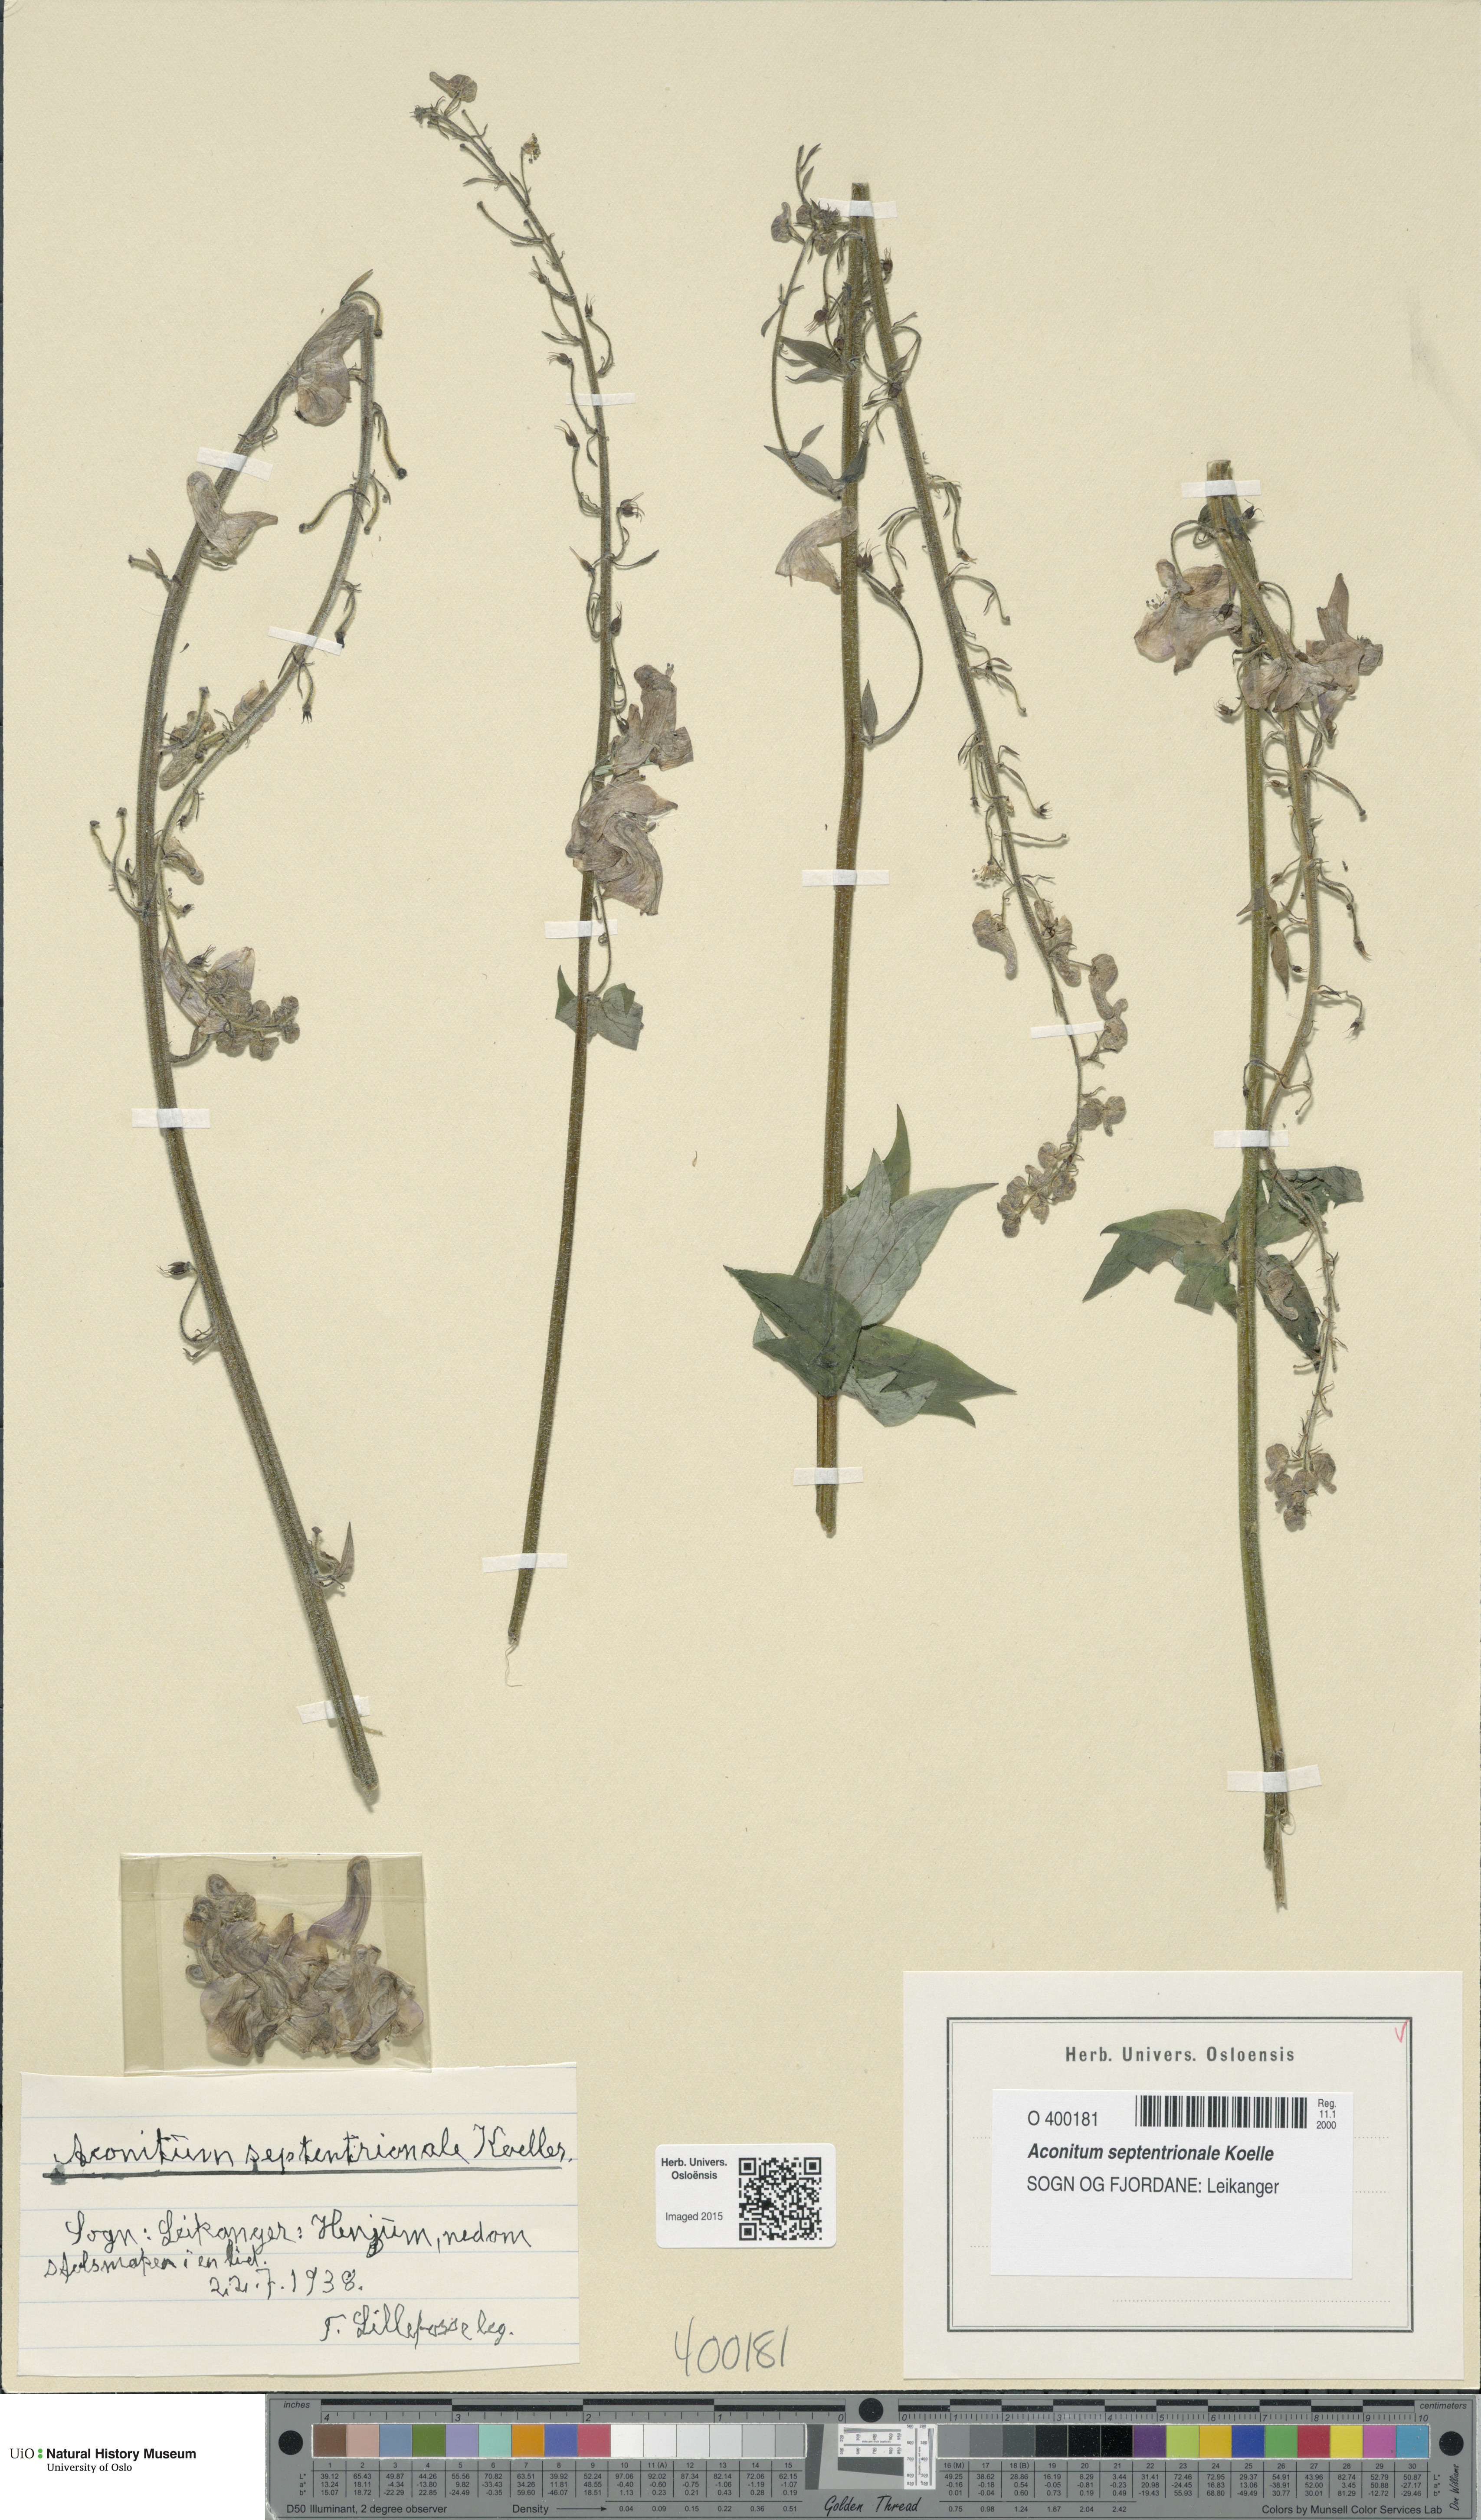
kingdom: Plantae
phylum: Tracheophyta
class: Magnoliopsida
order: Ranunculales
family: Ranunculaceae
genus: Aconitum
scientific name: Aconitum septentrionale
